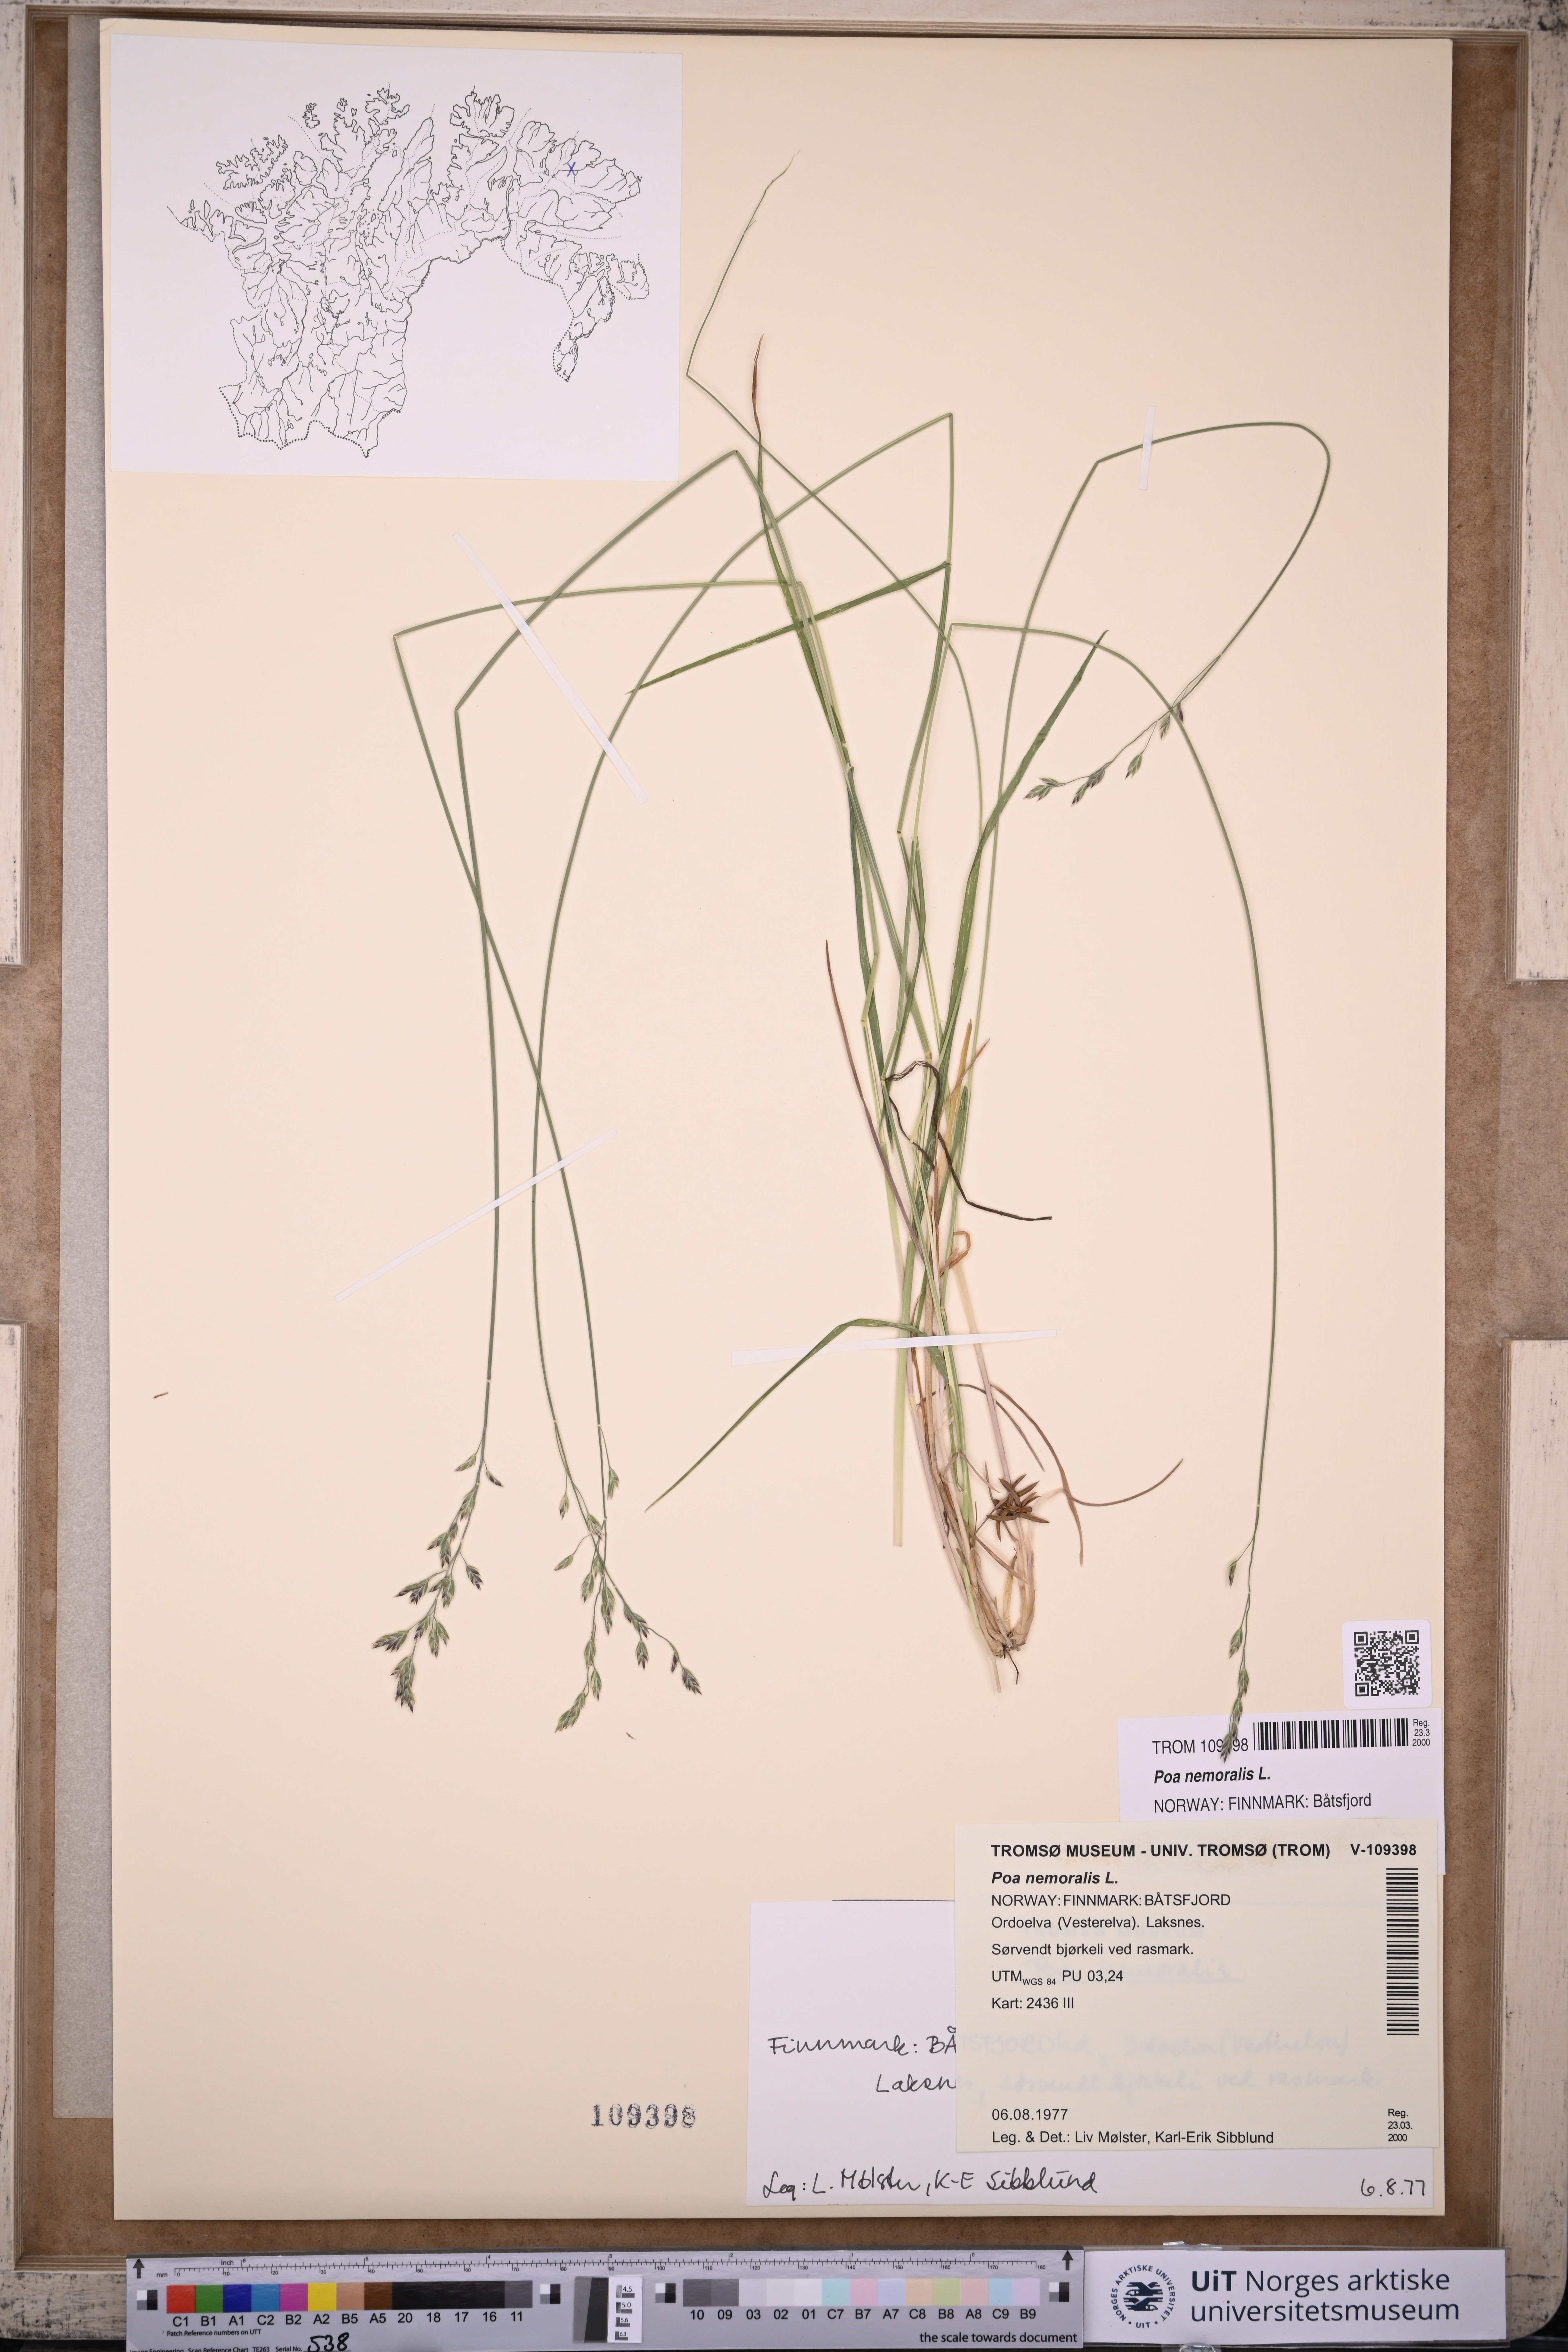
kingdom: Plantae
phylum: Tracheophyta
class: Liliopsida
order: Poales
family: Poaceae
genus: Poa
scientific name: Poa nemoralis
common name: Wood bluegrass
